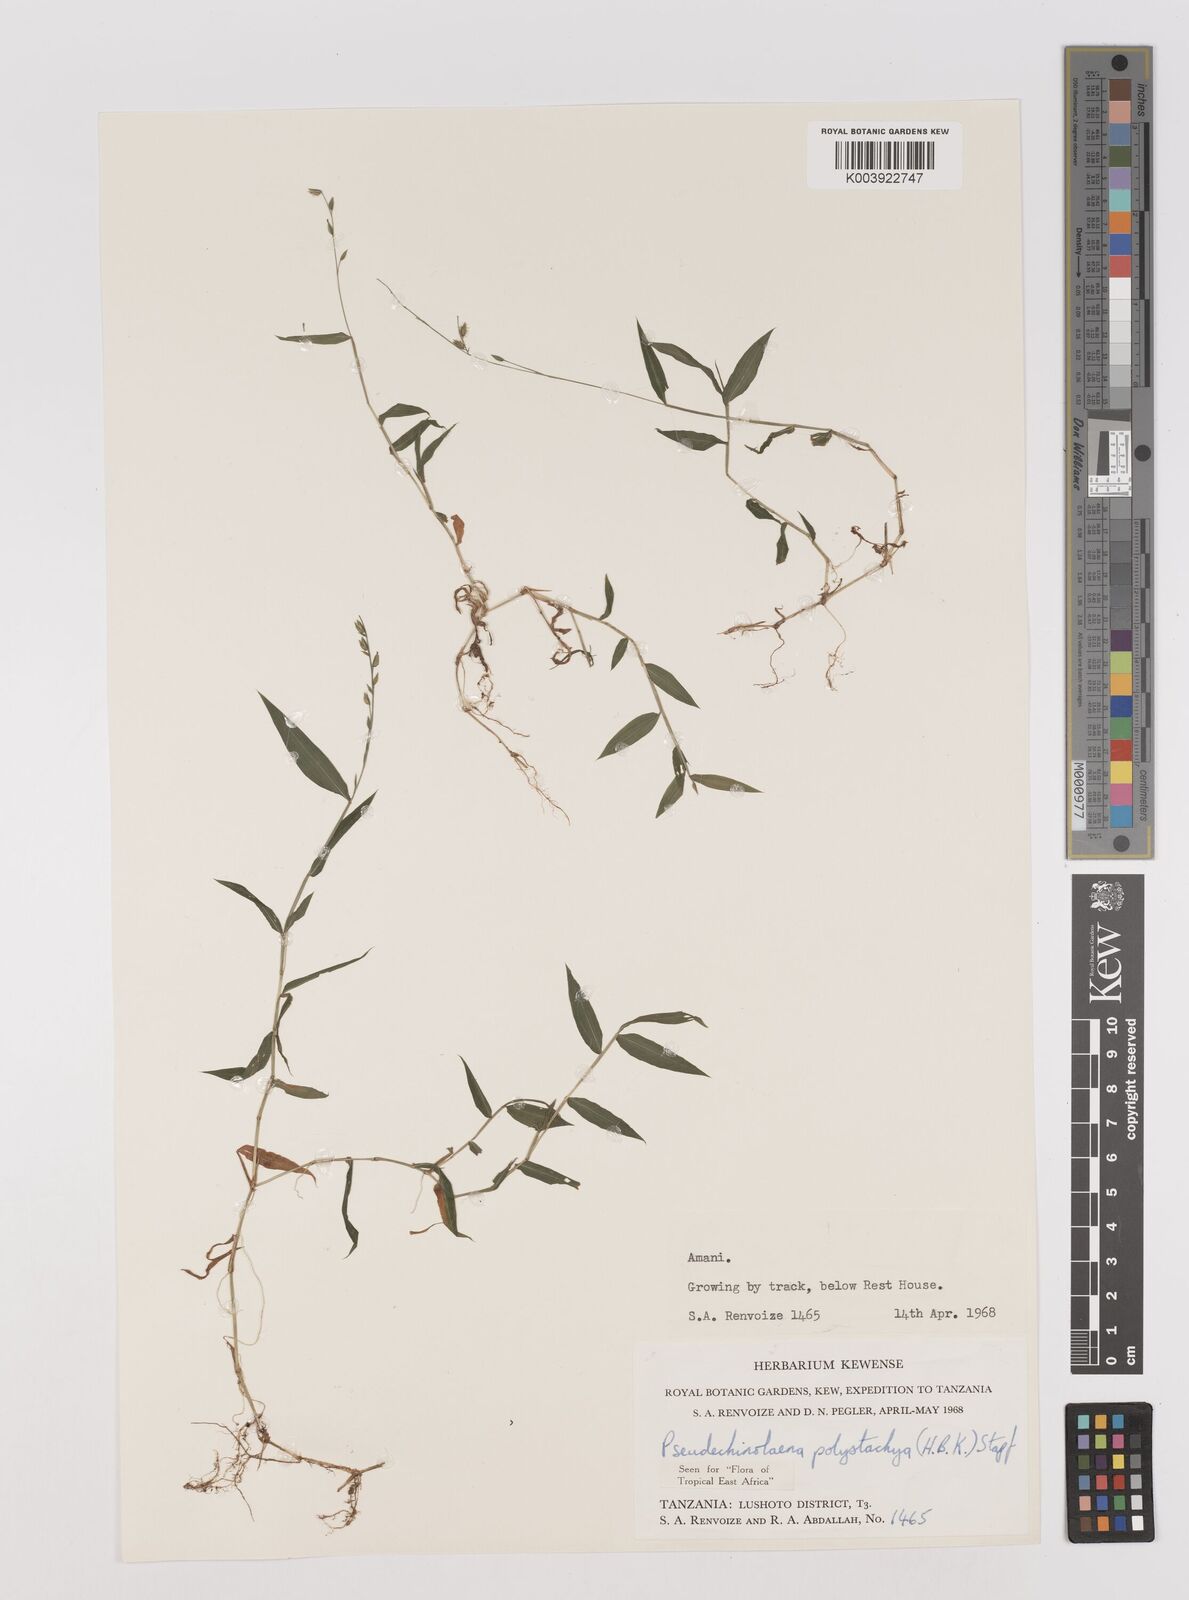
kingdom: Plantae
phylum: Tracheophyta
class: Liliopsida
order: Poales
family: Poaceae
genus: Pseudechinolaena
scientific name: Pseudechinolaena polystachya
